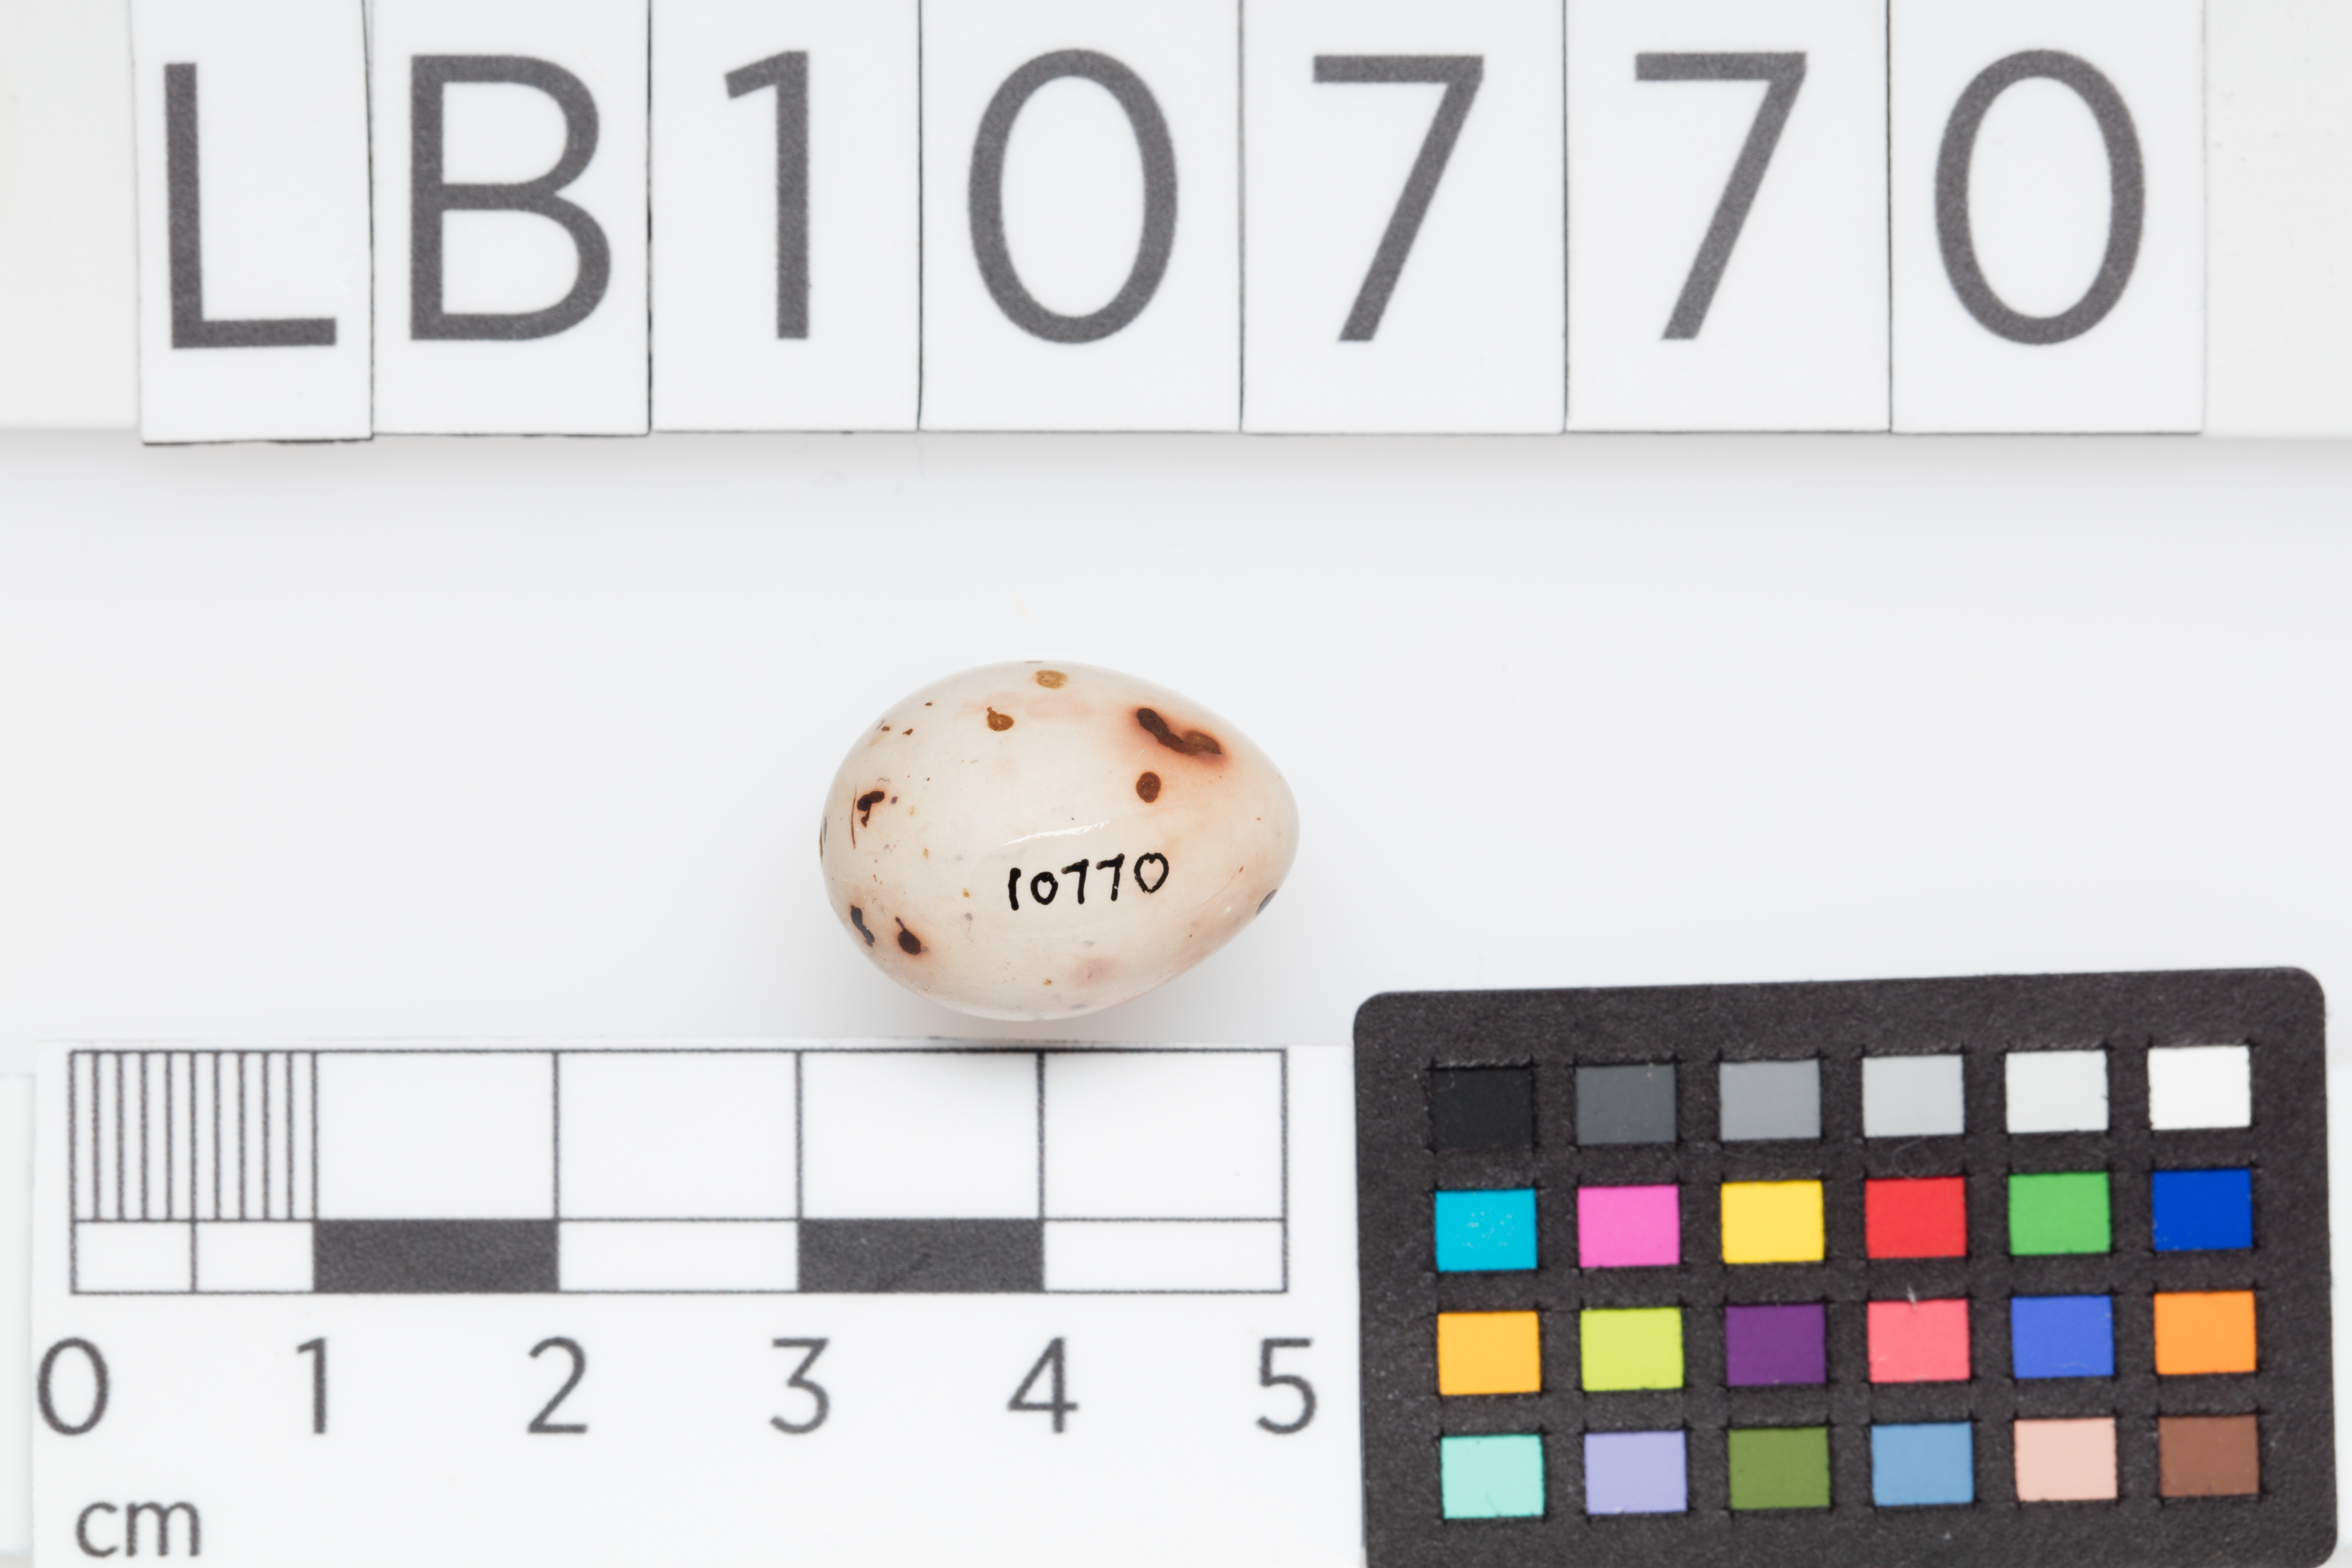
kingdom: Animalia
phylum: Chordata
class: Aves
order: Passeriformes
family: Fringillidae
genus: Fringilla
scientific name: Fringilla coelebs
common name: Common chaffinch
